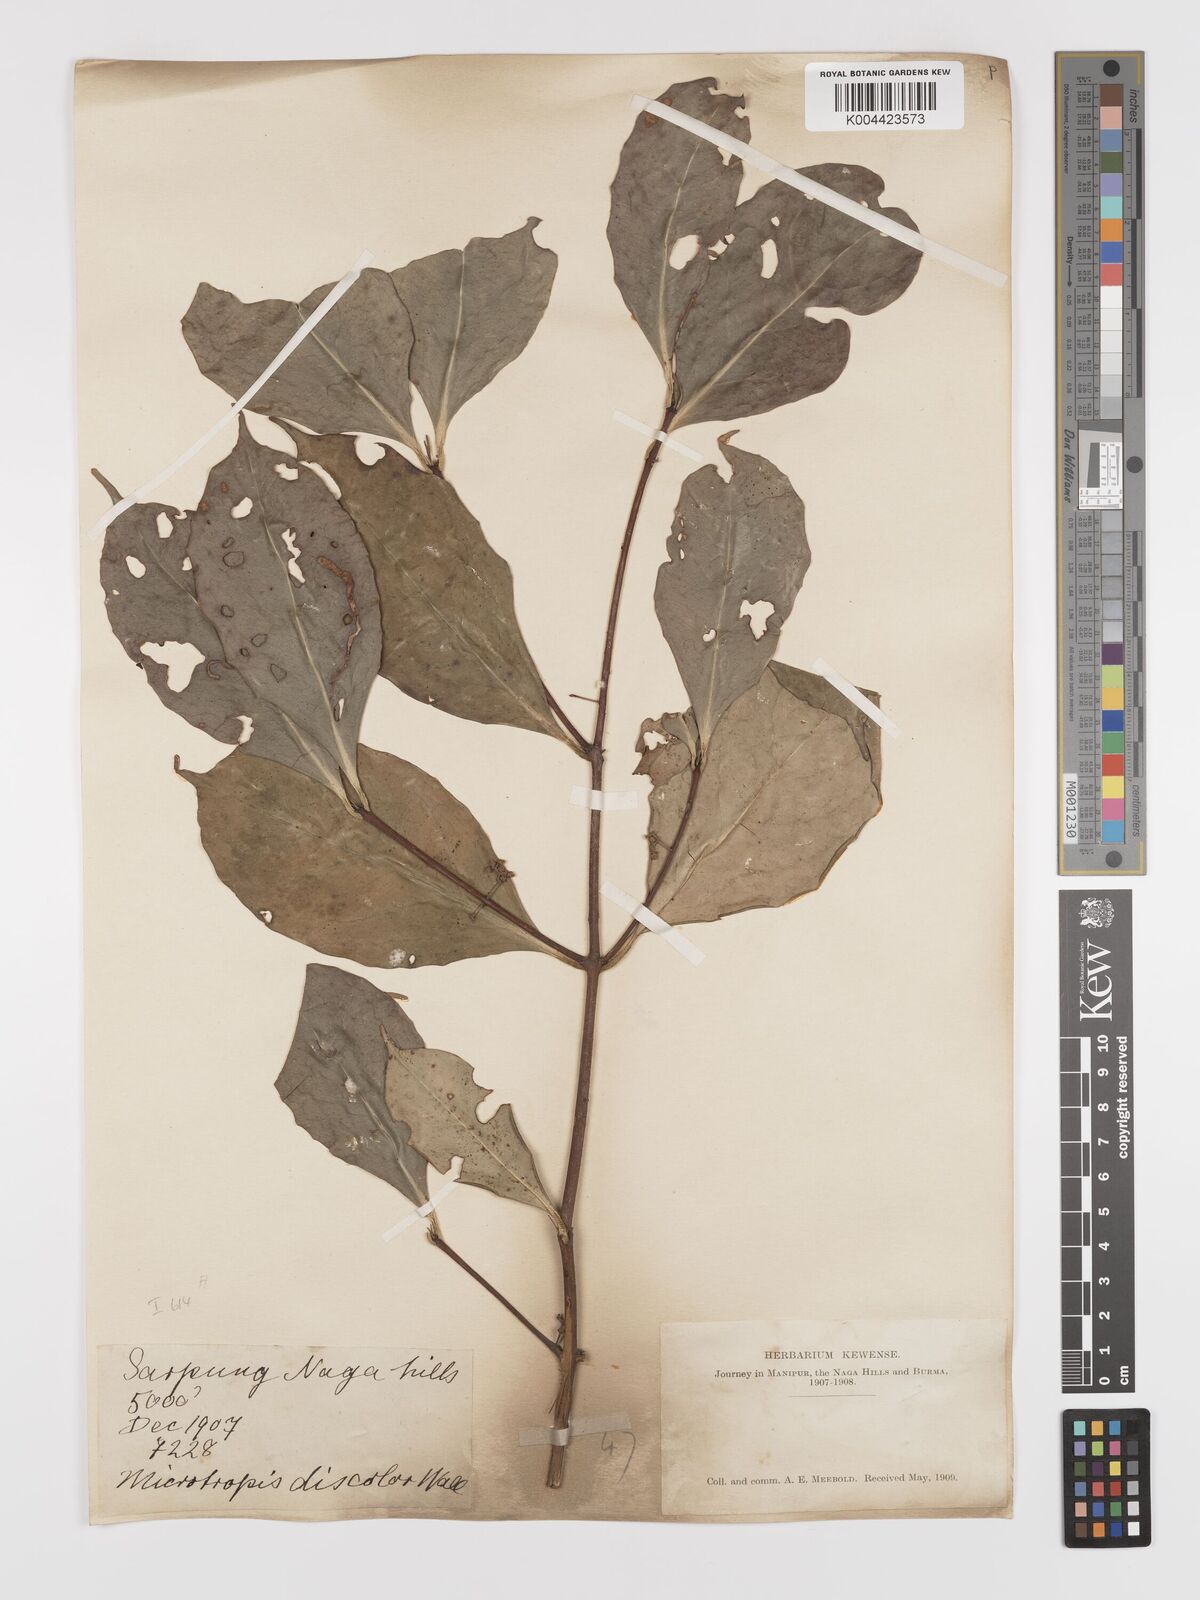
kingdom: Plantae
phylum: Tracheophyta
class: Magnoliopsida
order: Celastrales
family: Celastraceae
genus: Microtropis
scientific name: Microtropis bivalvis
